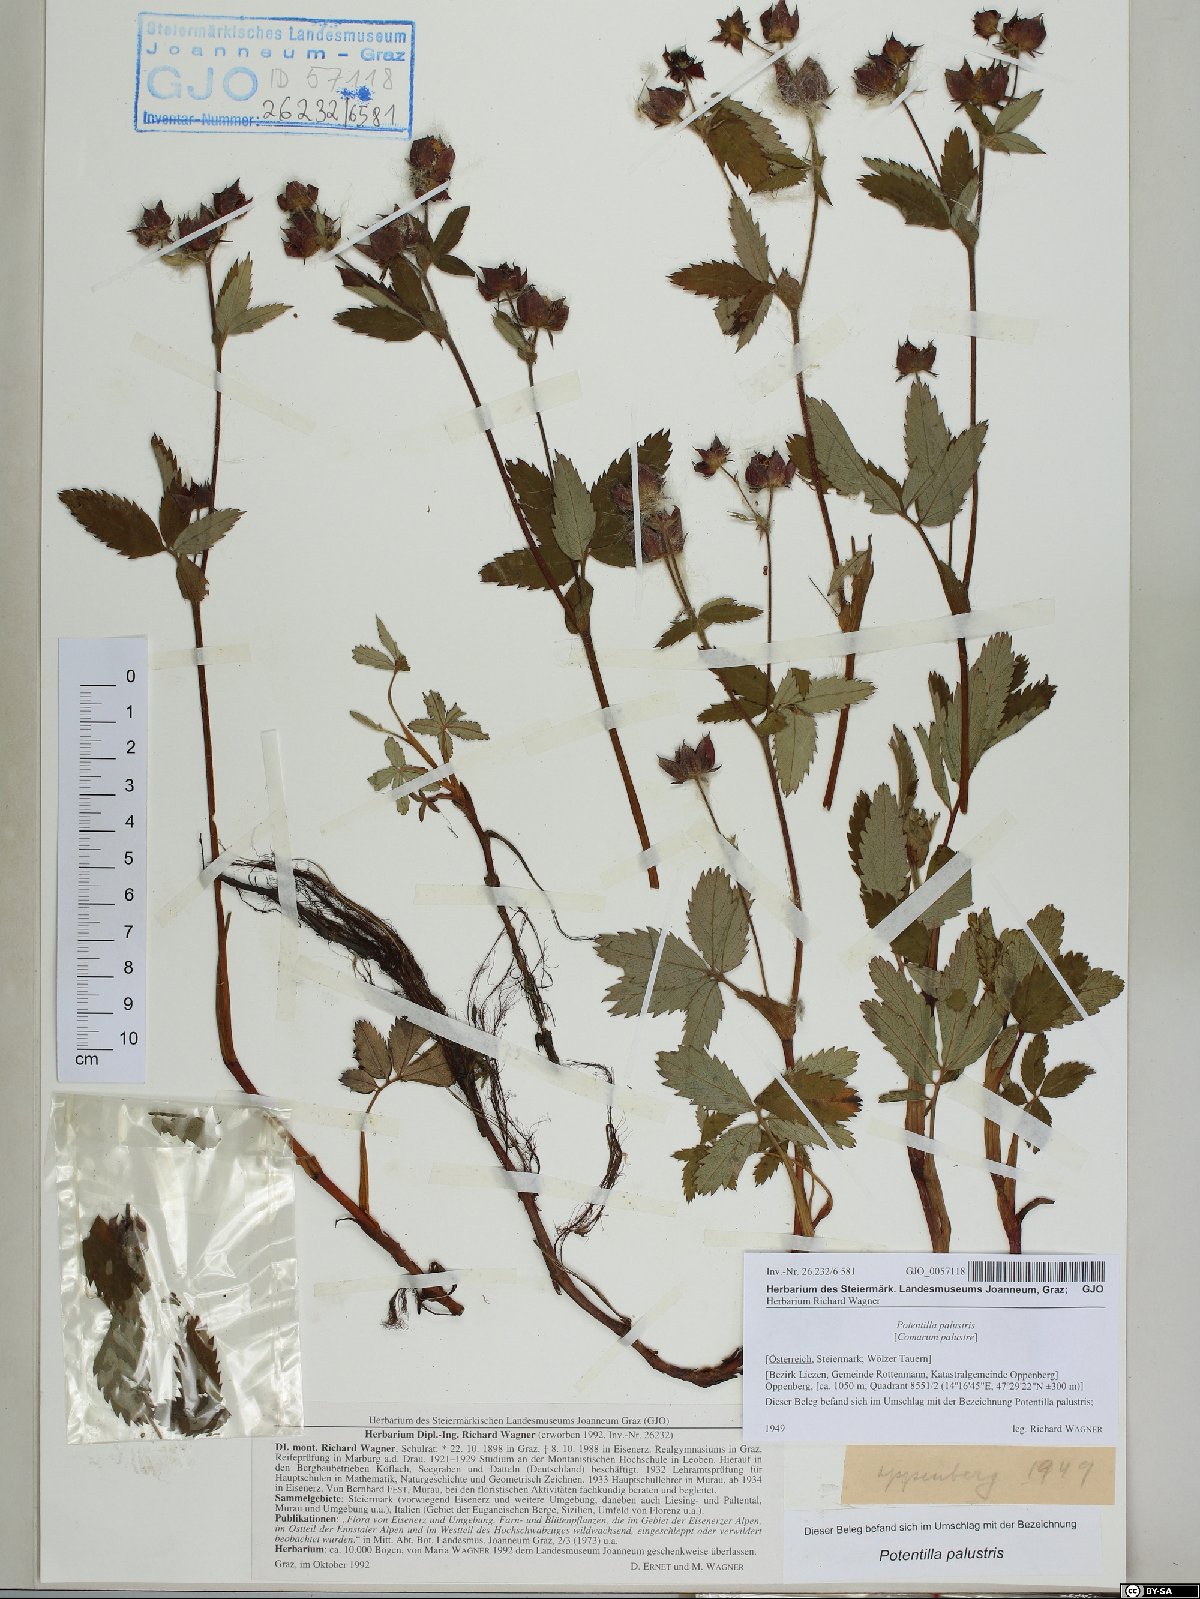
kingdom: Plantae
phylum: Tracheophyta
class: Magnoliopsida
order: Rosales
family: Rosaceae
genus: Comarum
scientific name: Comarum palustre
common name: Marsh cinquefoil
